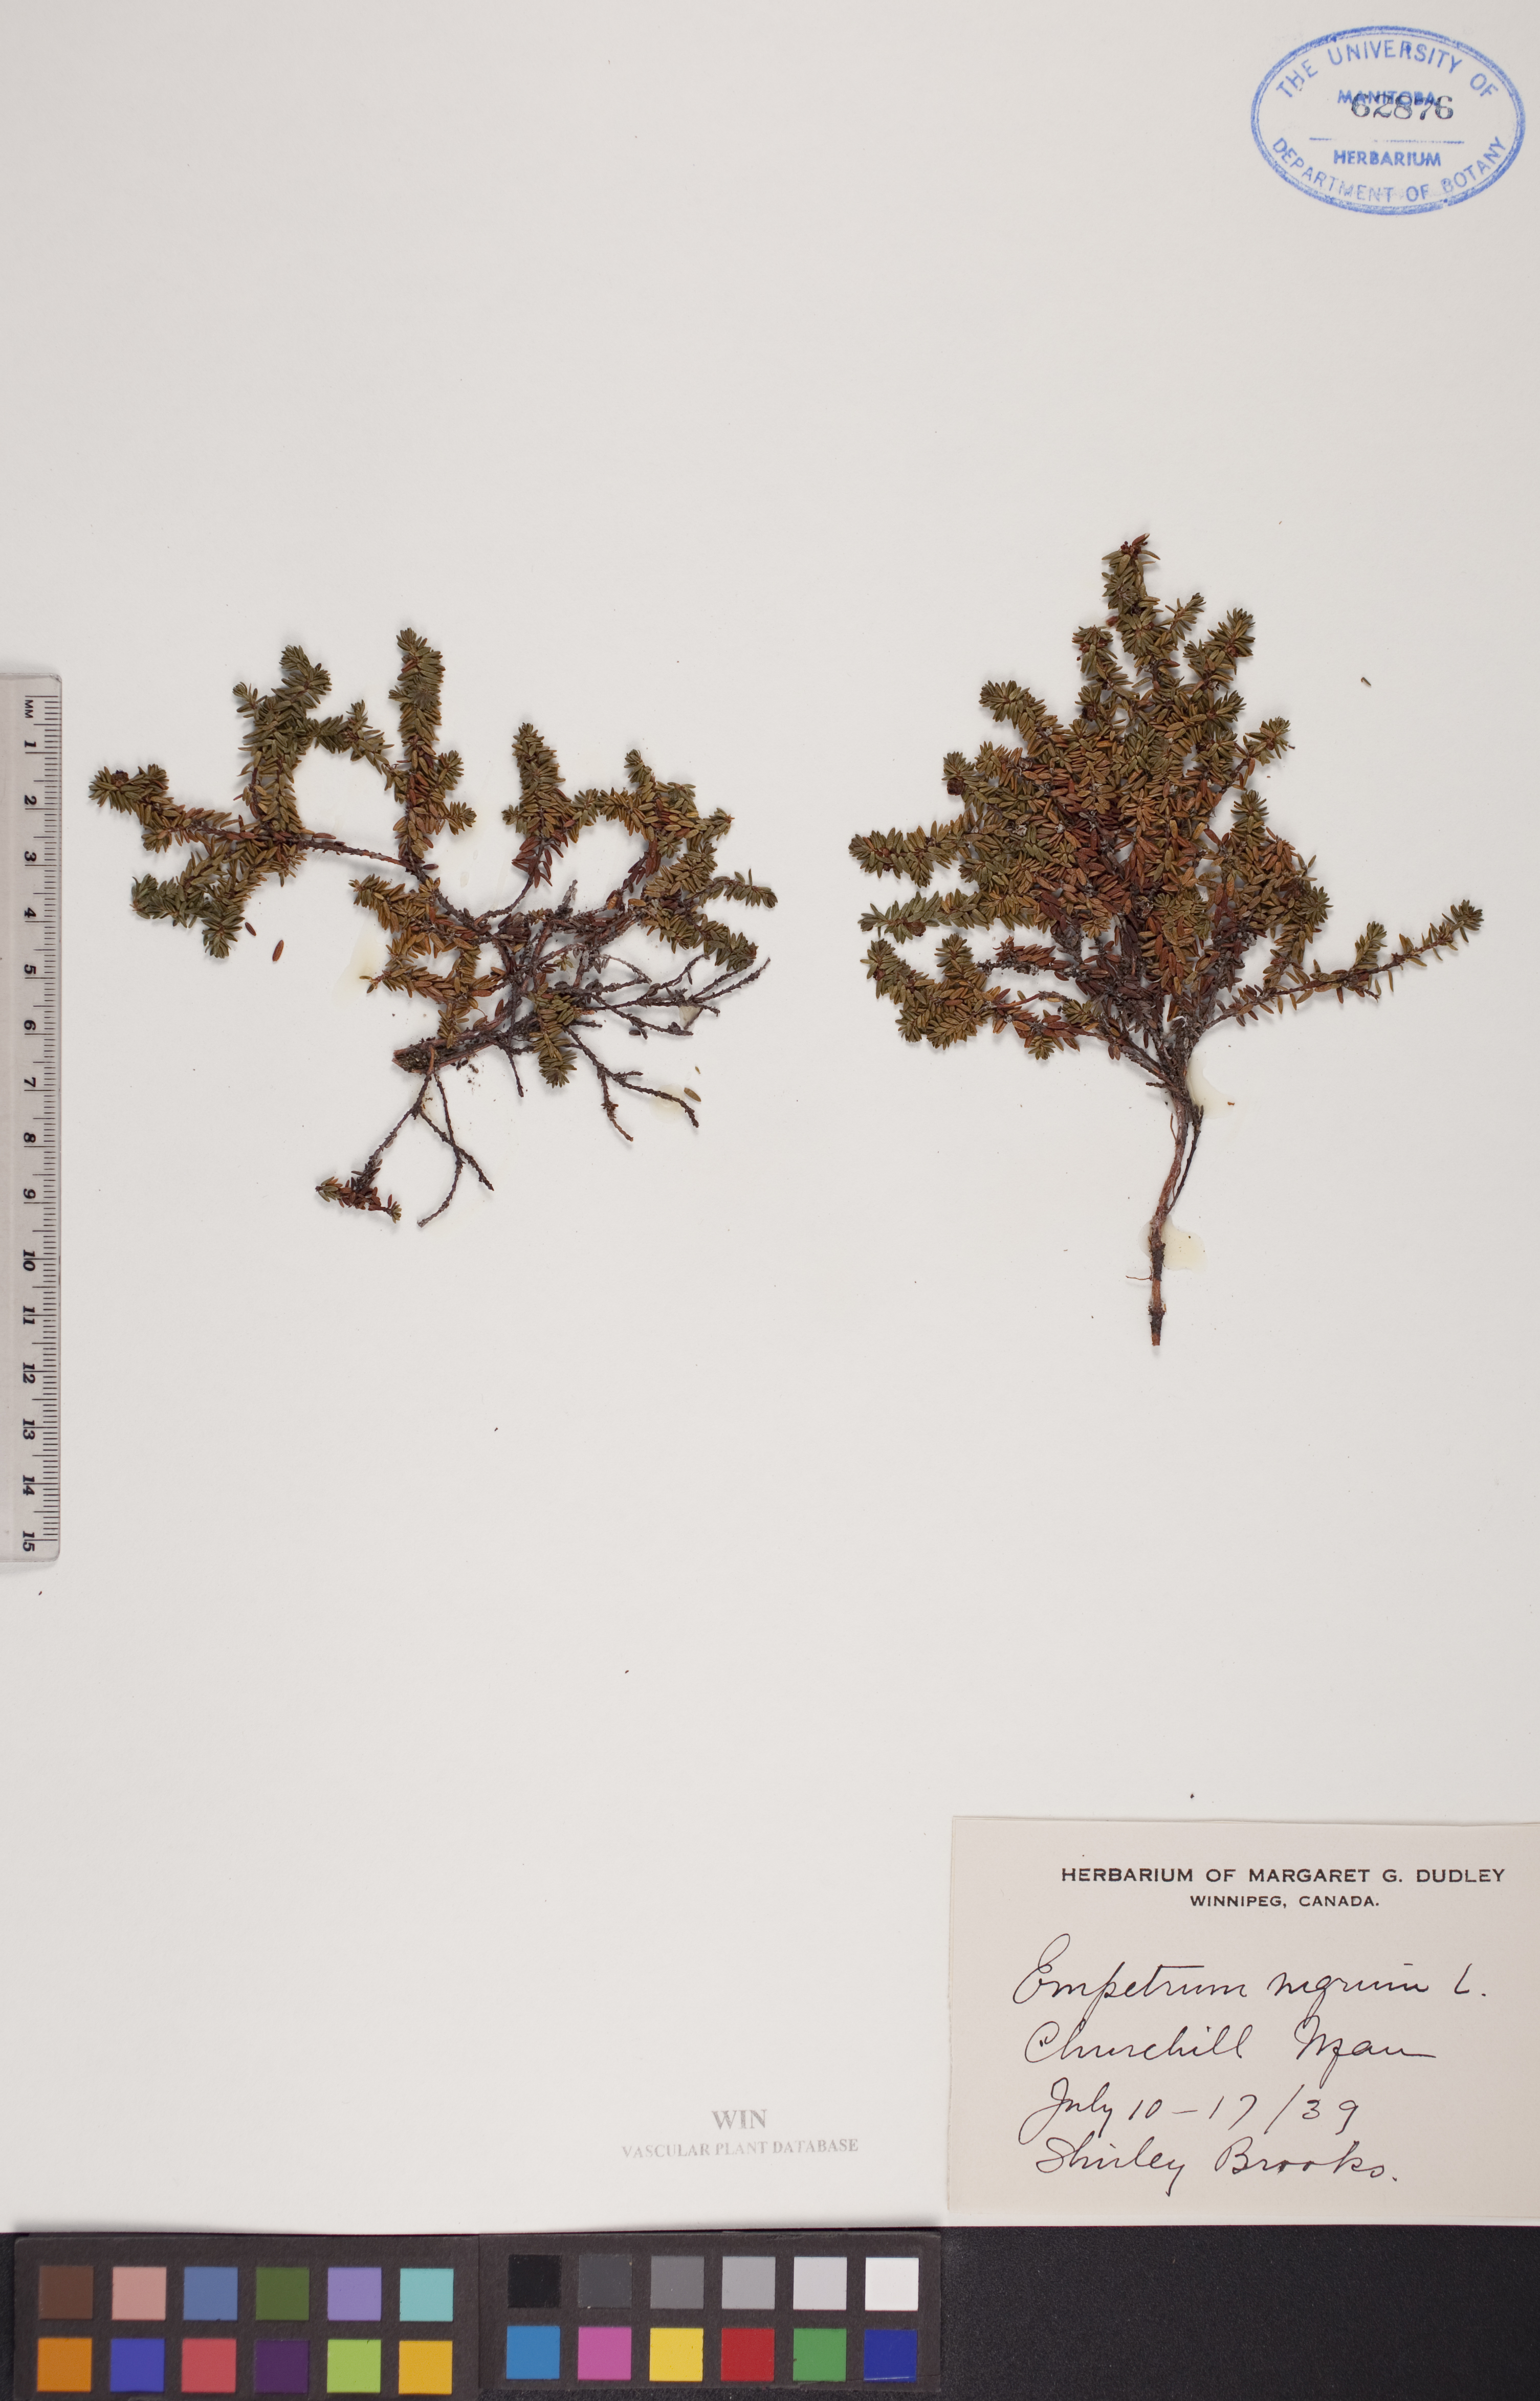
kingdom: Plantae
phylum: Tracheophyta
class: Magnoliopsida
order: Ericales
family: Ericaceae
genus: Empetrum
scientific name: Empetrum nigrum
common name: Black crowberry
